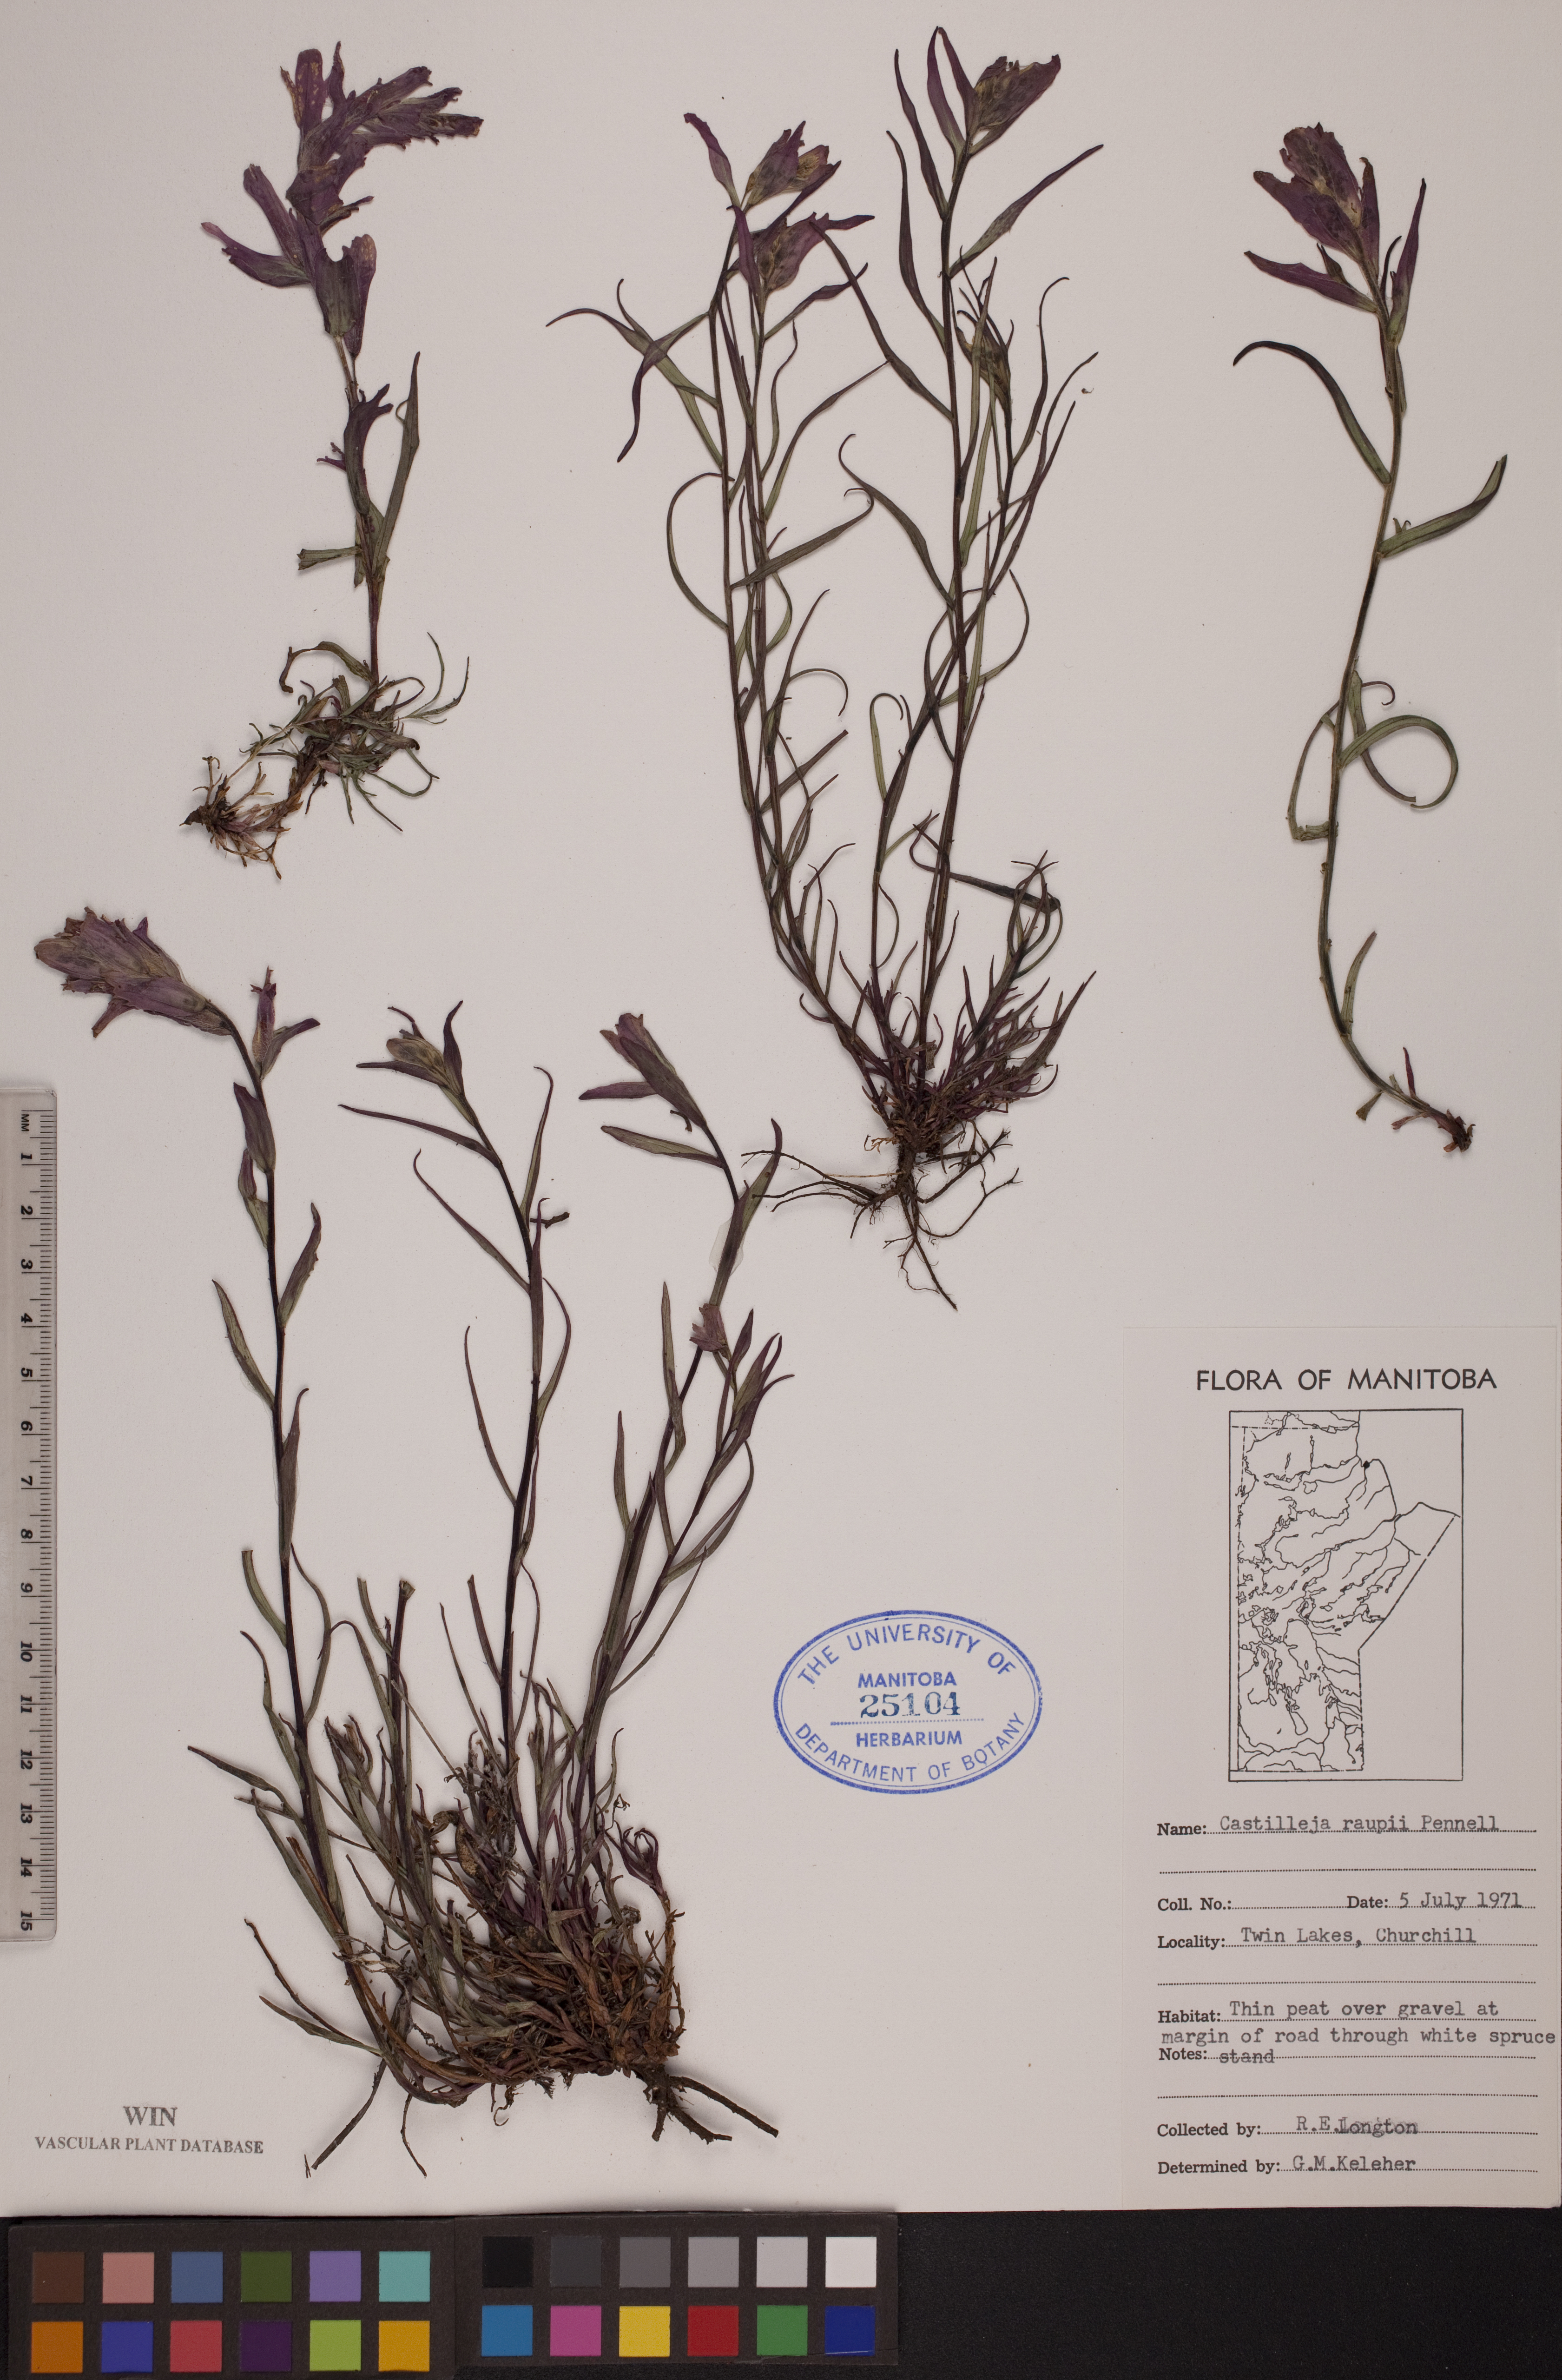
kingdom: Plantae
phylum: Tracheophyta
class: Magnoliopsida
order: Lamiales
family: Orobanchaceae
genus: Castilleja
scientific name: Castilleja raupii
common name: Raup's paintbrush
